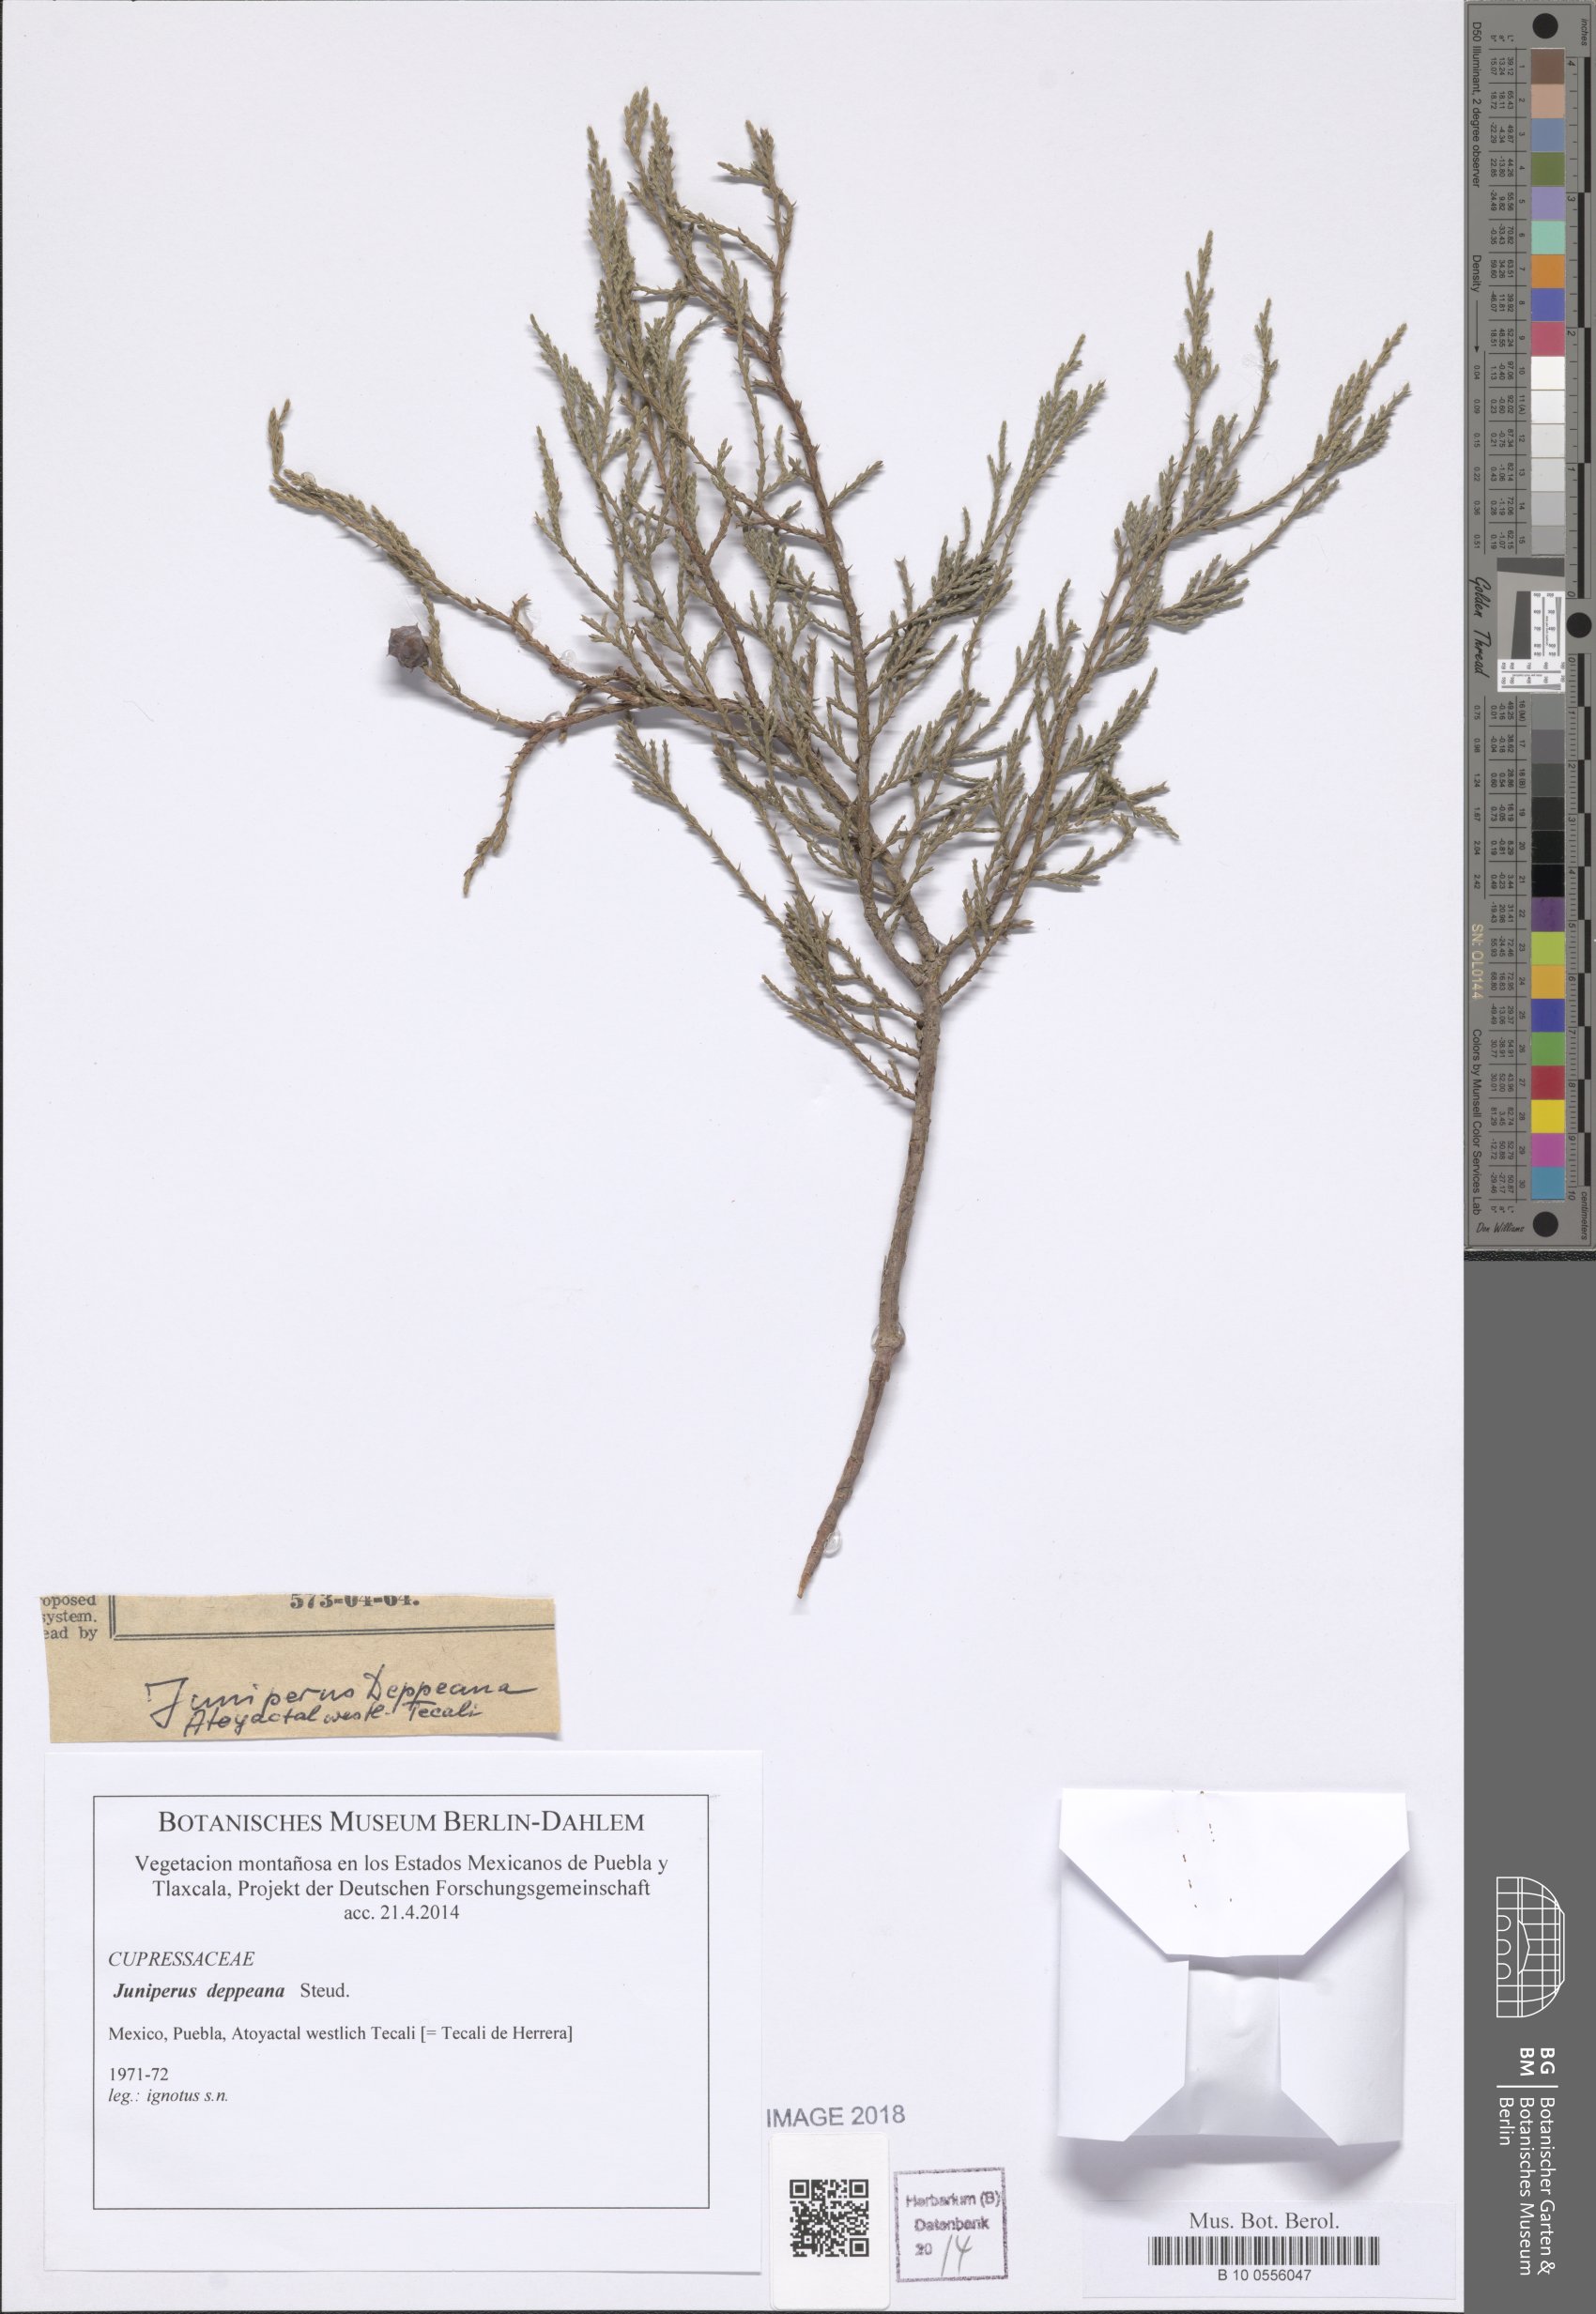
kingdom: Plantae
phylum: Tracheophyta
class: Pinopsida
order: Pinales
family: Cupressaceae
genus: Juniperus
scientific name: Juniperus deppeana
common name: Alligator juniper
